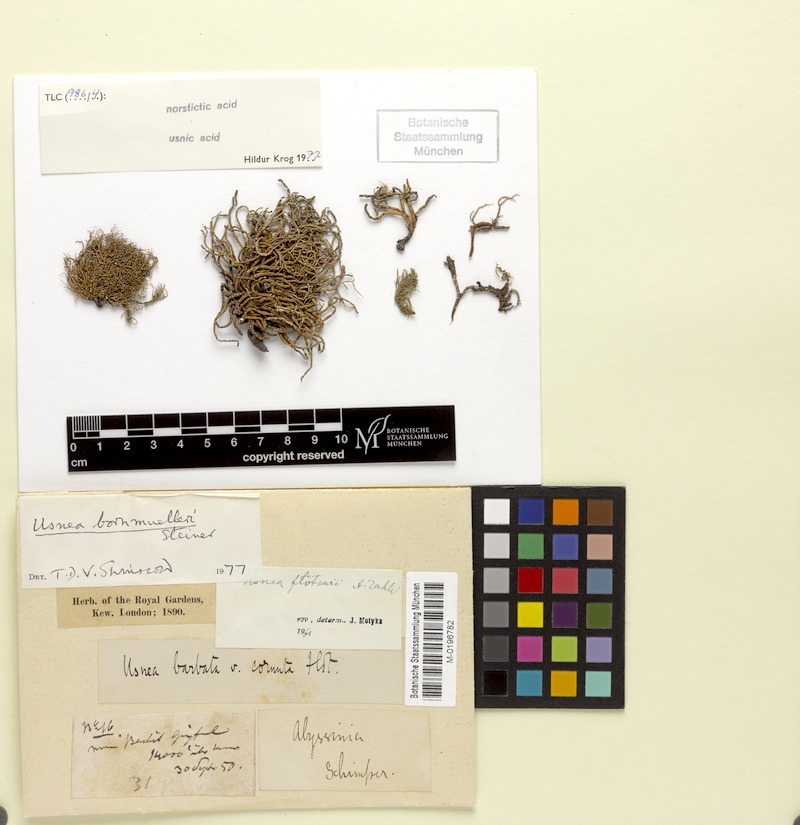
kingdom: Fungi
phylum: Ascomycota
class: Lecanoromycetes
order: Lecanorales
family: Parmeliaceae
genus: Usnea
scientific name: Usnea bornmuelleri
